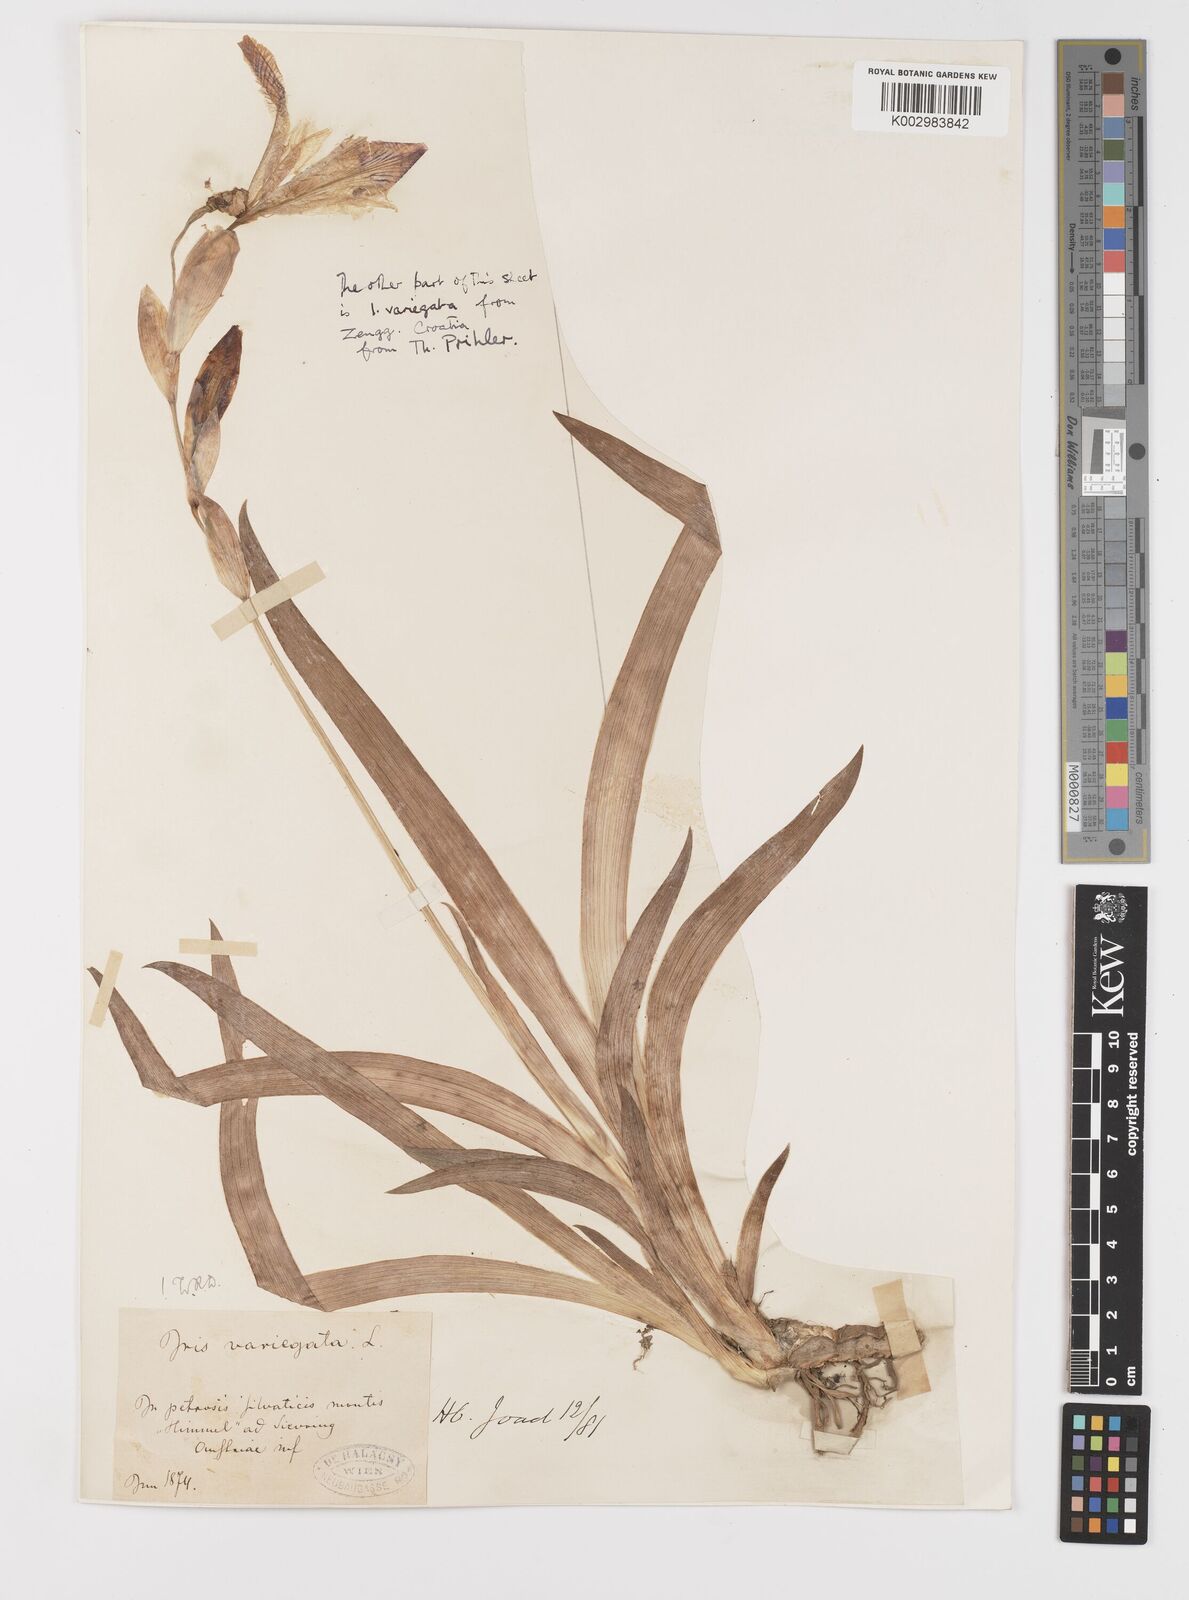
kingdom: Plantae
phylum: Tracheophyta
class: Liliopsida
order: Asparagales
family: Iridaceae
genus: Iris
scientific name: Iris variegata
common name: Hungarian iris
